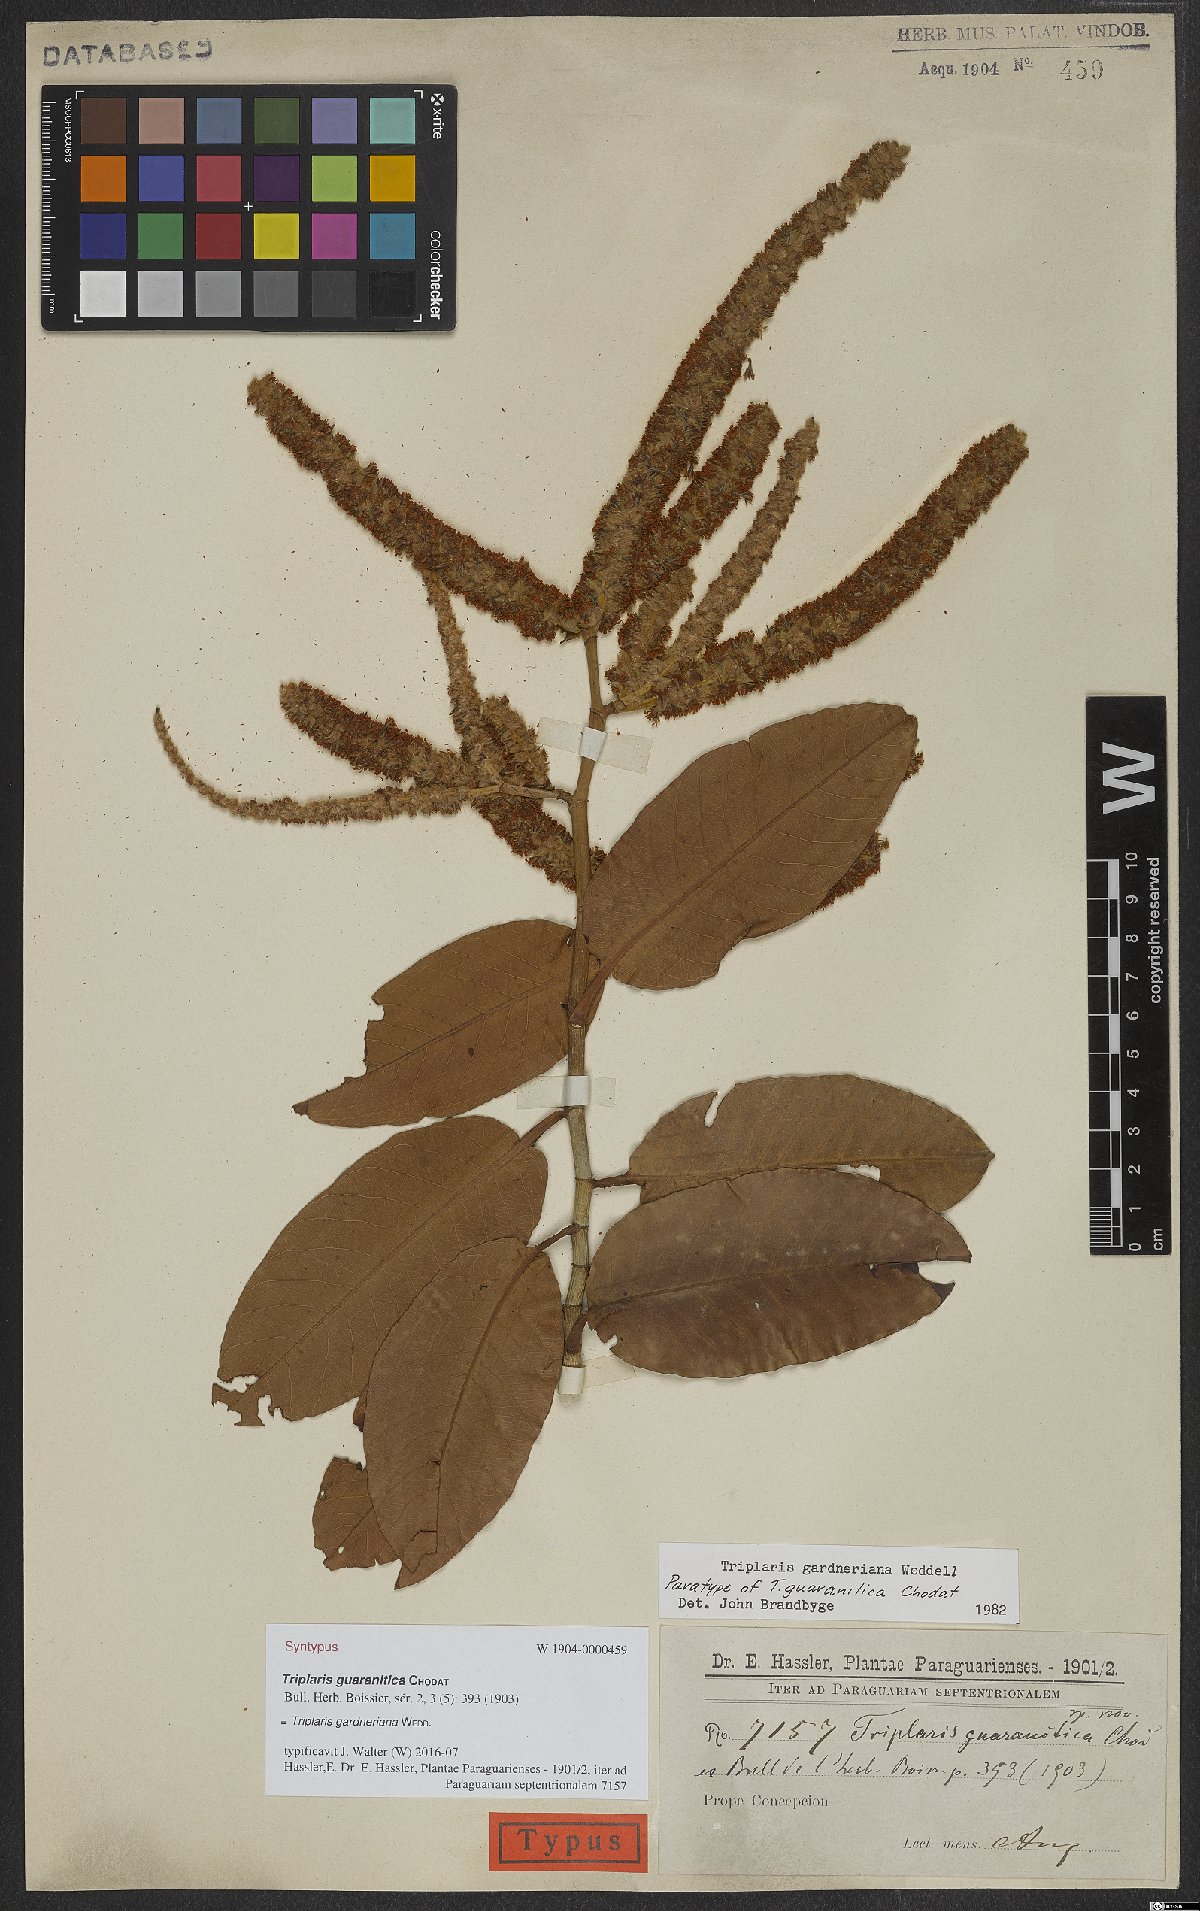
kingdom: Plantae
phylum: Tracheophyta
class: Magnoliopsida
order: Caryophyllales
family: Polygonaceae
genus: Triplaris
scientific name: Triplaris gardneriana
